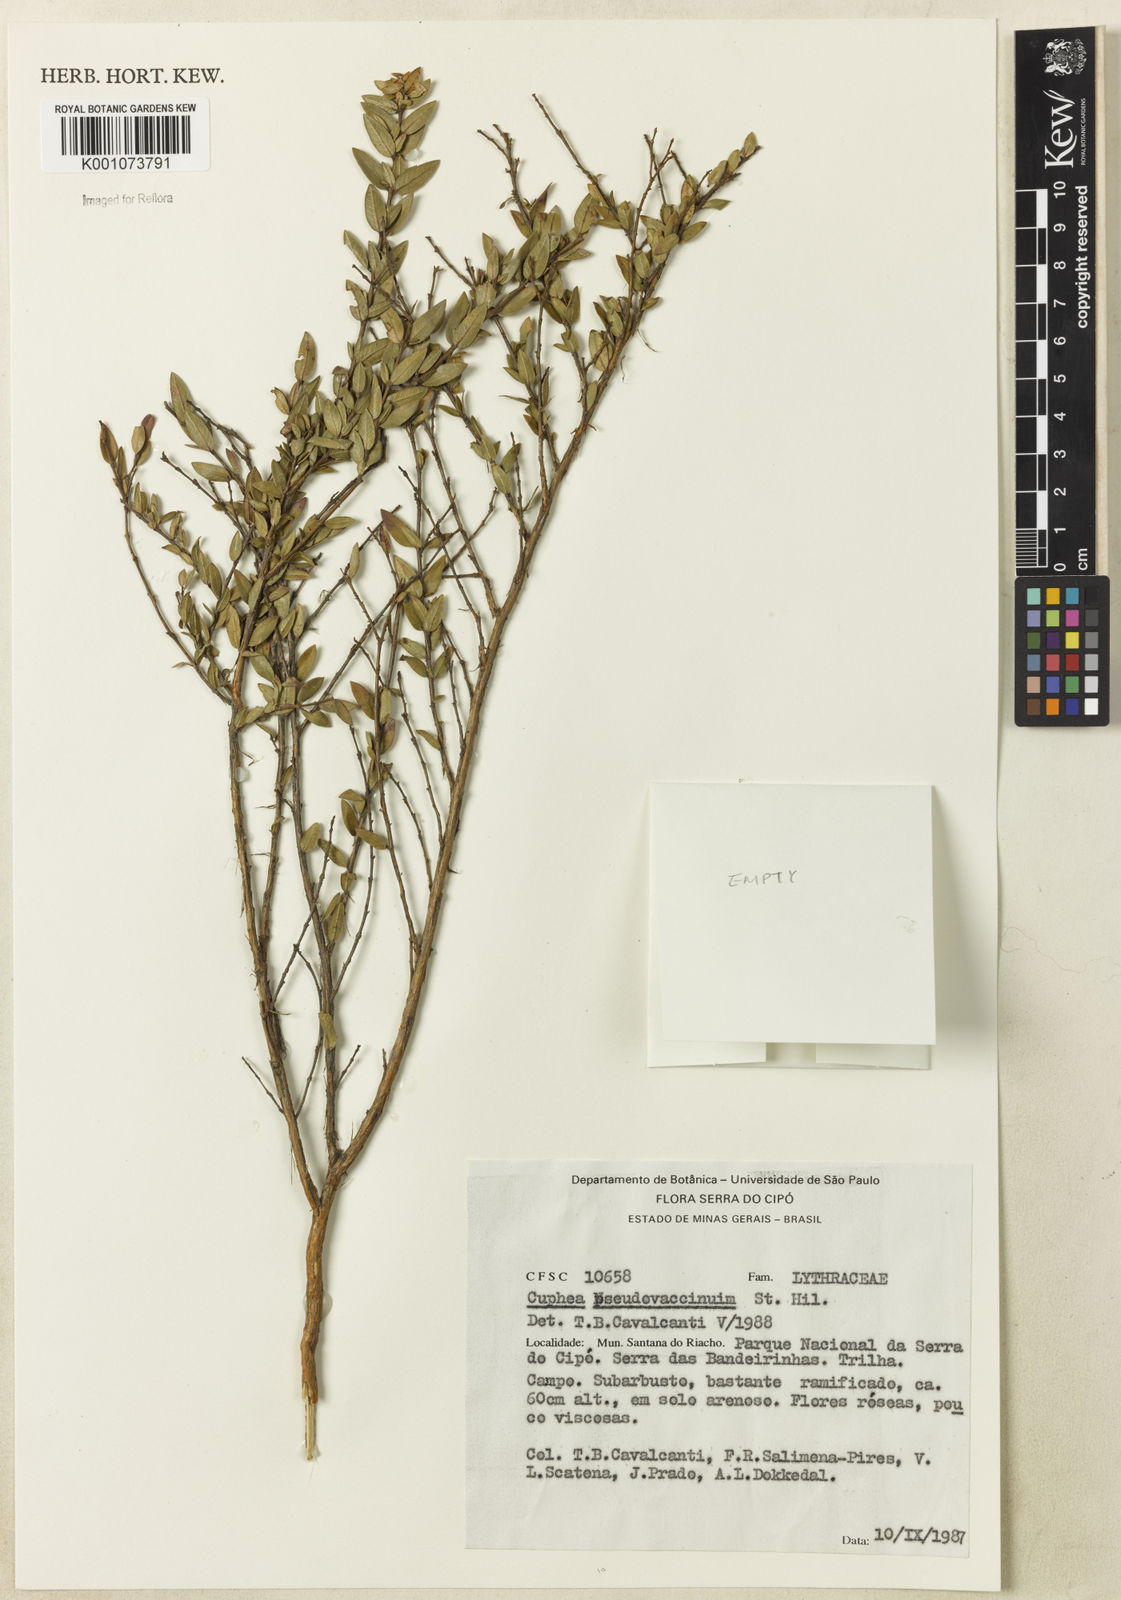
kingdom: Plantae
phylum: Tracheophyta
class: Magnoliopsida
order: Myrtales
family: Lythraceae
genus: Cuphea
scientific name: Cuphea pseudovaccinium
